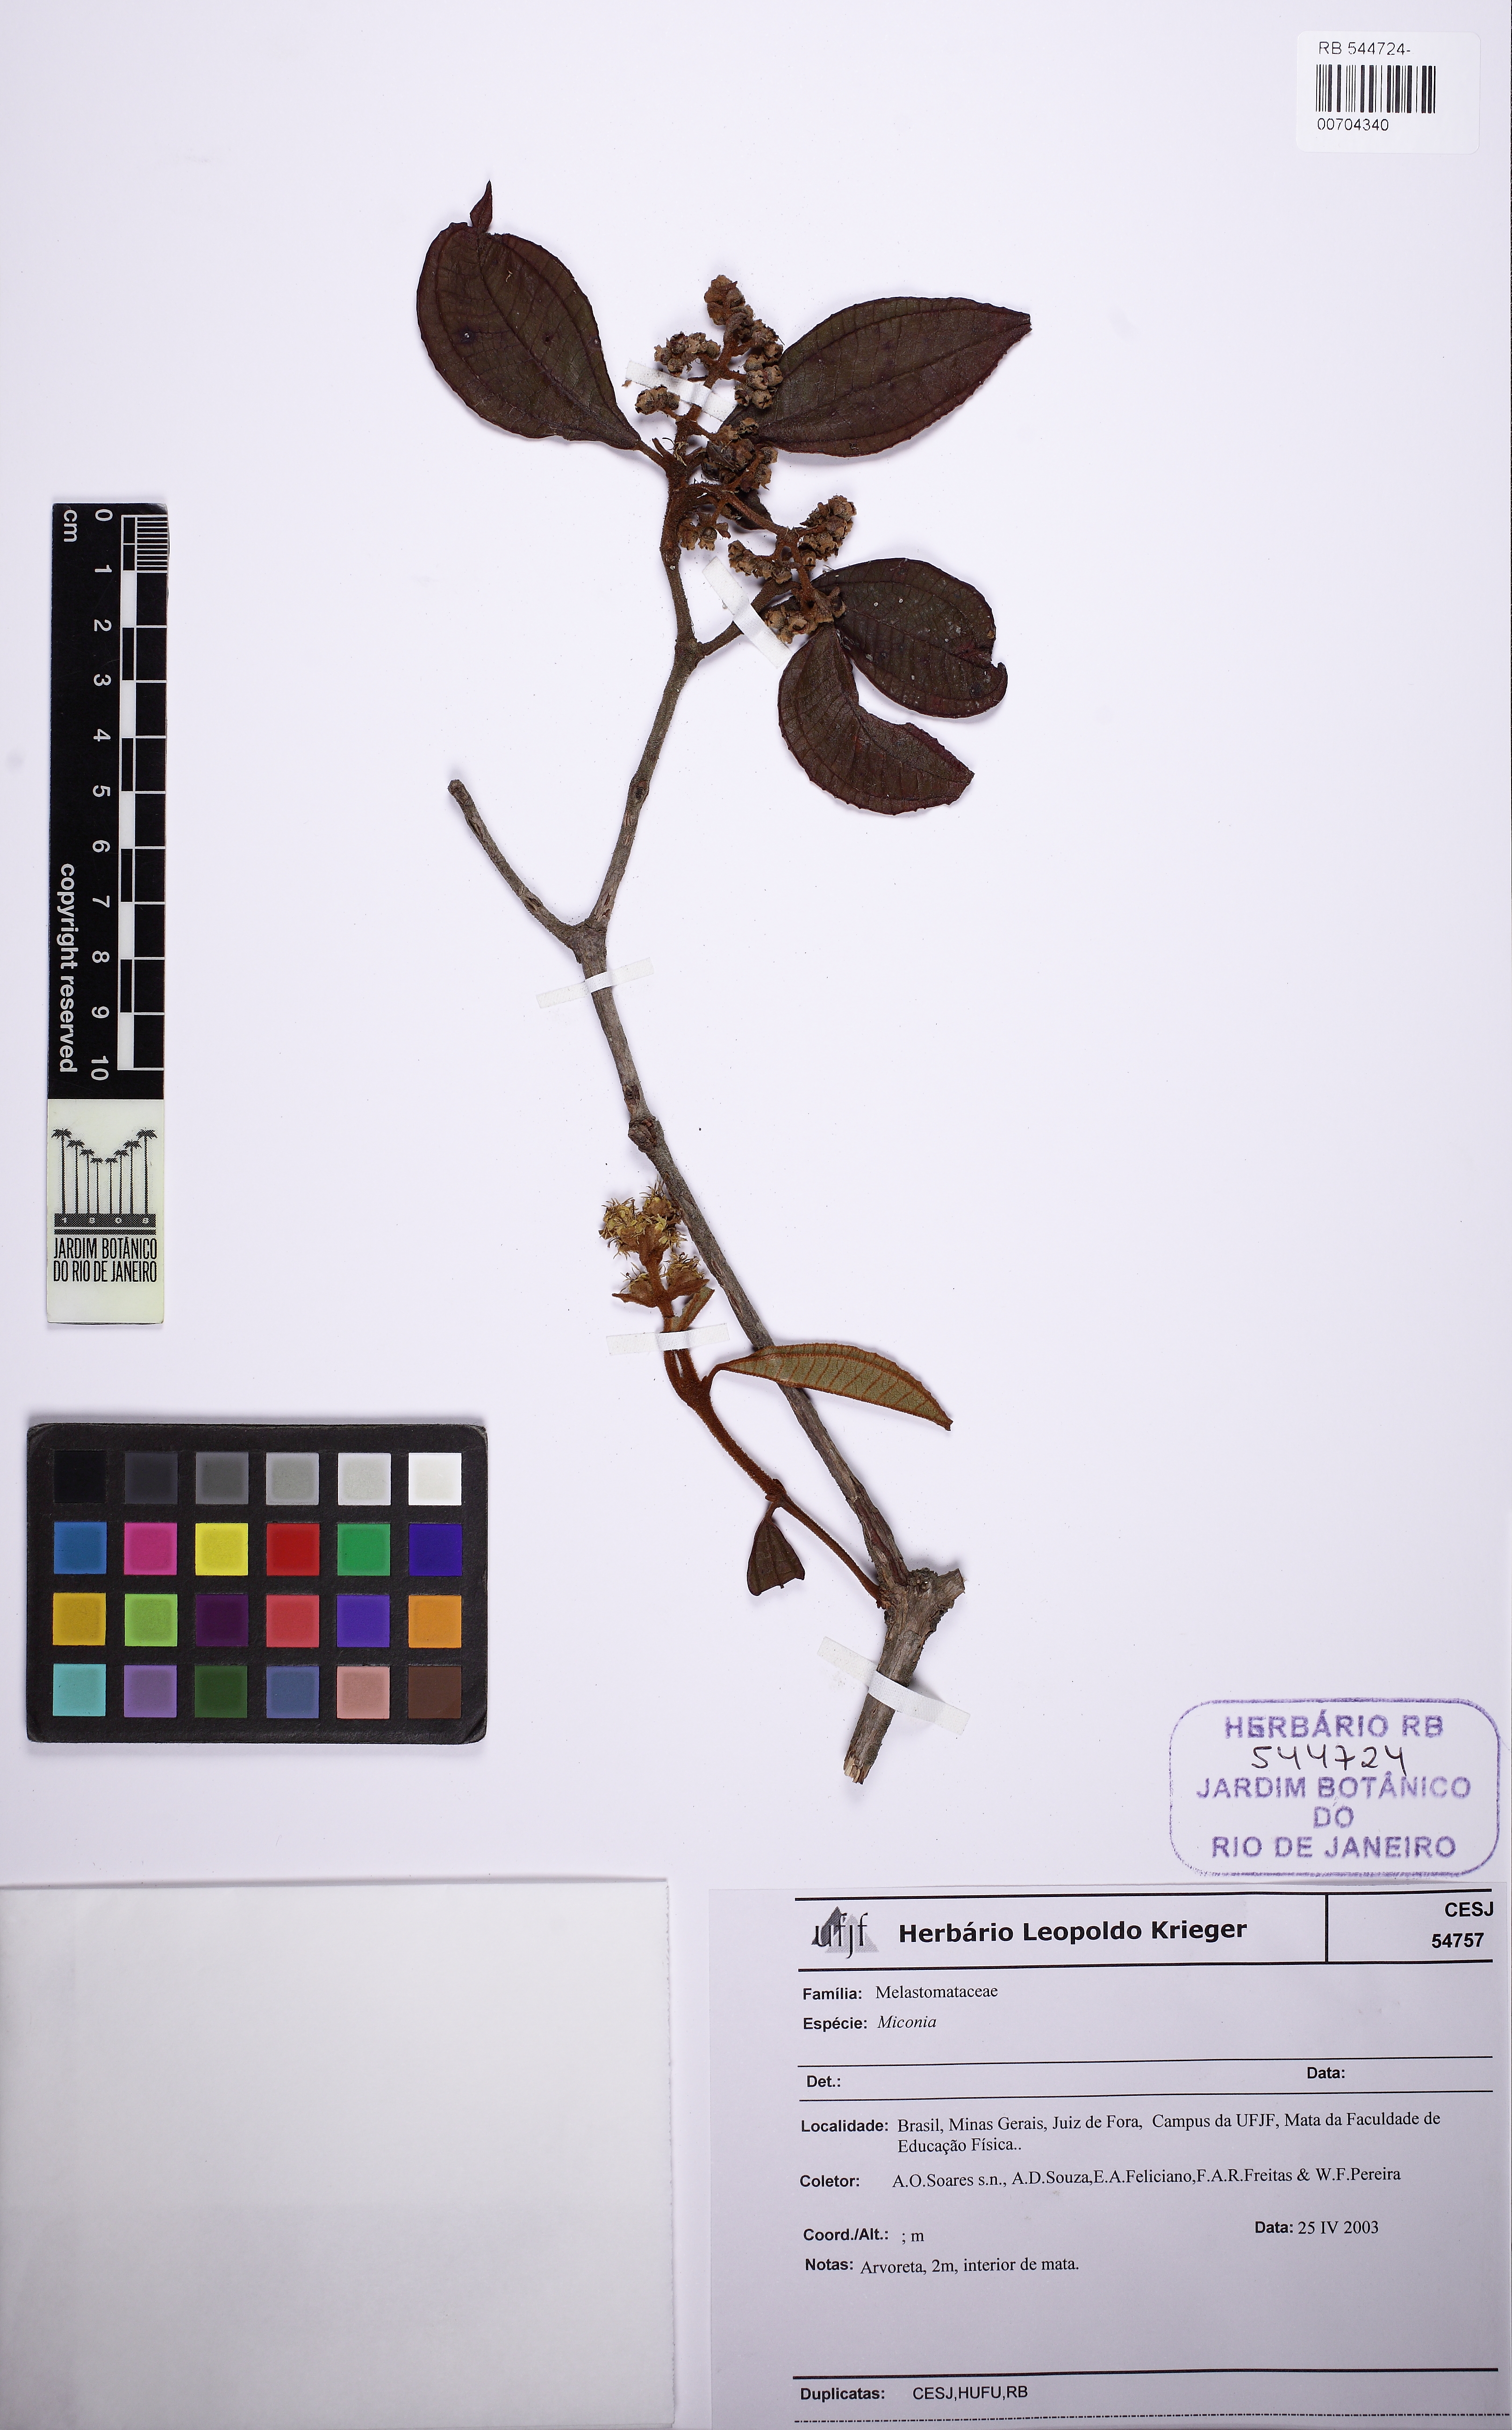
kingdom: Plantae
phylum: Tracheophyta
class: Magnoliopsida
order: Myrtales
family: Melastomataceae
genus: Miconia
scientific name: Miconia
